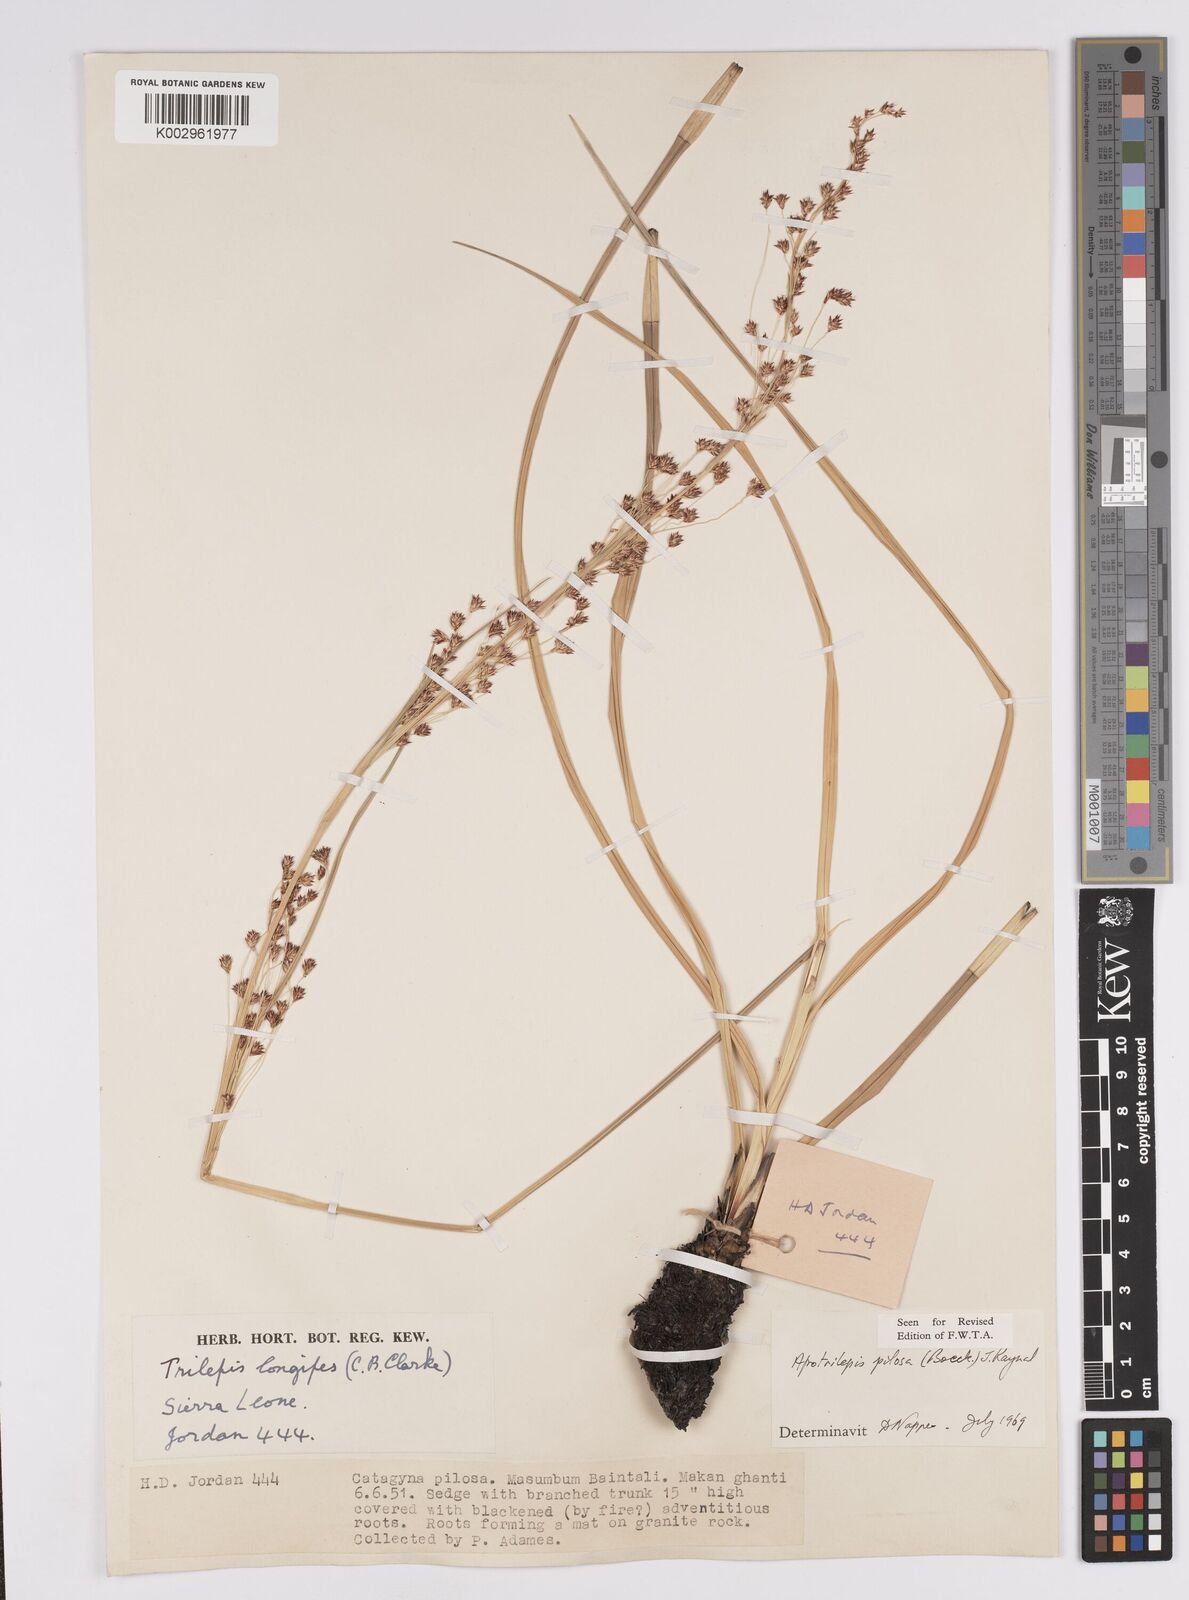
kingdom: Plantae
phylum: Tracheophyta
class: Liliopsida
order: Poales
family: Cyperaceae
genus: Afrotrilepis
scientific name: Afrotrilepis pilosa
